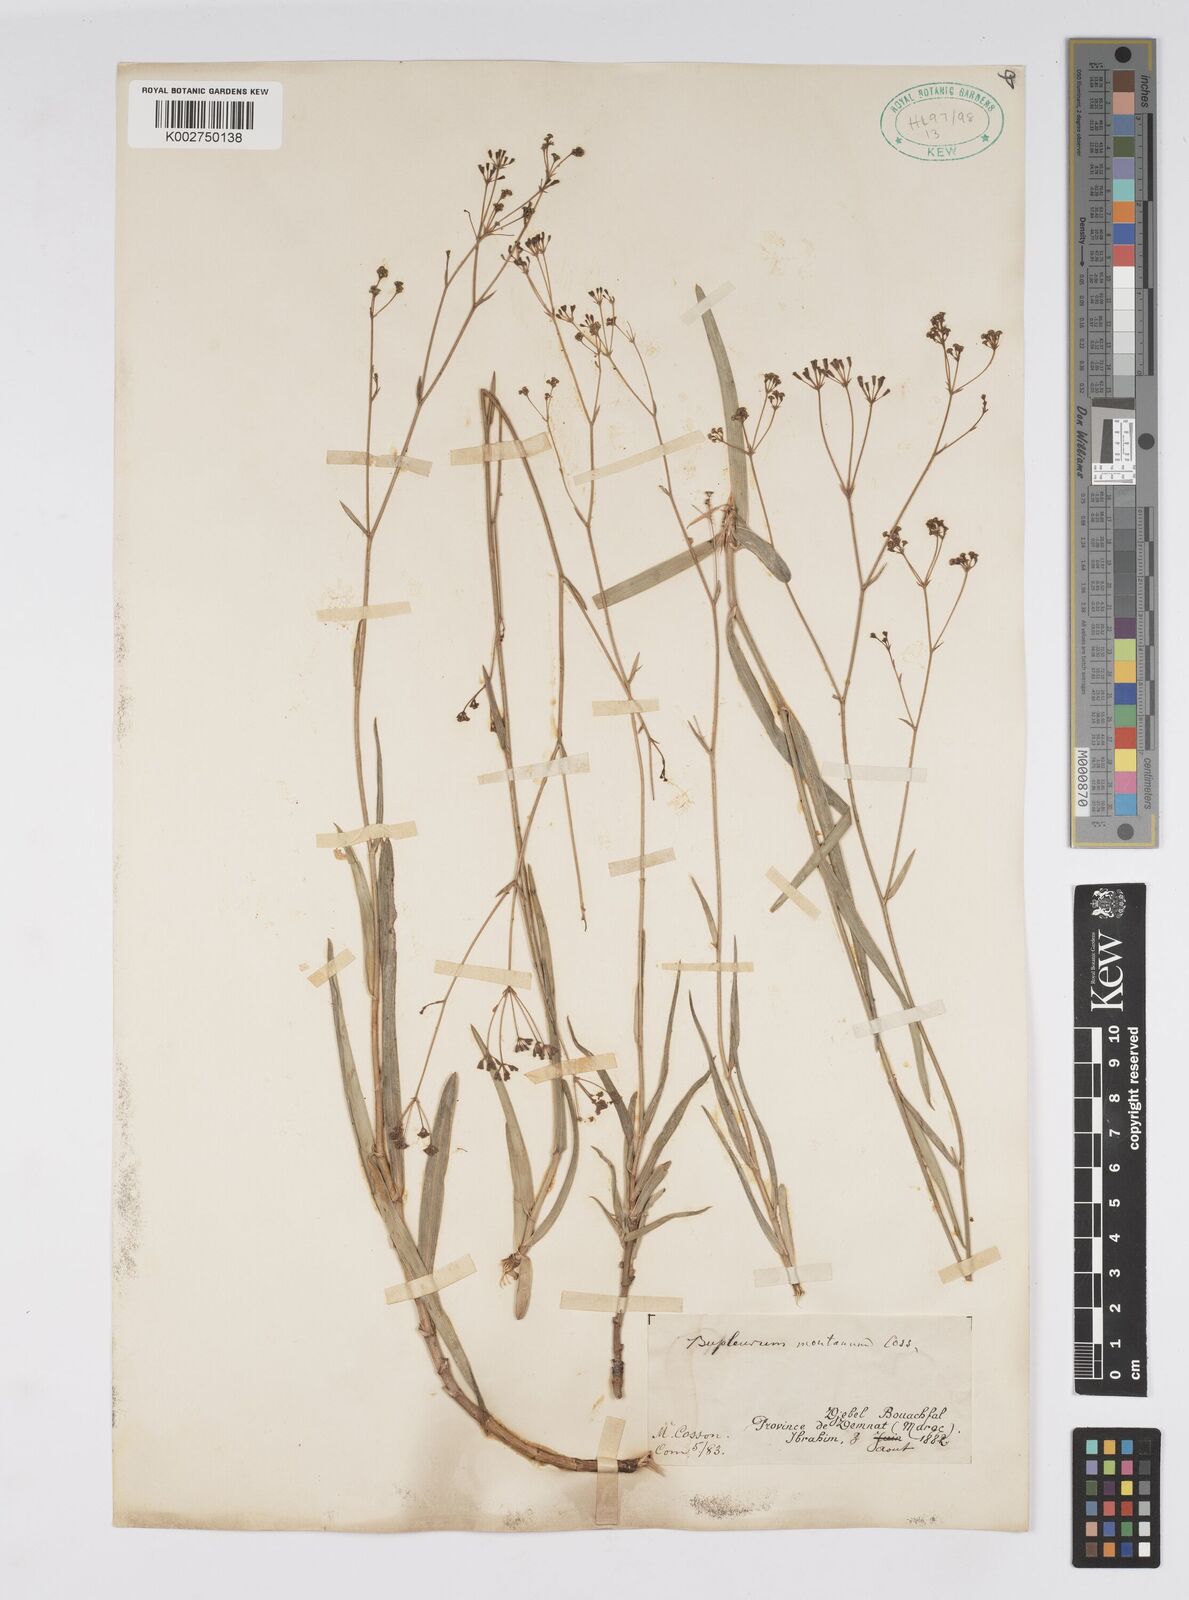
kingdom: Plantae
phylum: Tracheophyta
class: Magnoliopsida
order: Apiales
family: Apiaceae
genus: Bupleurum
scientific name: Bupleurum oligactis
